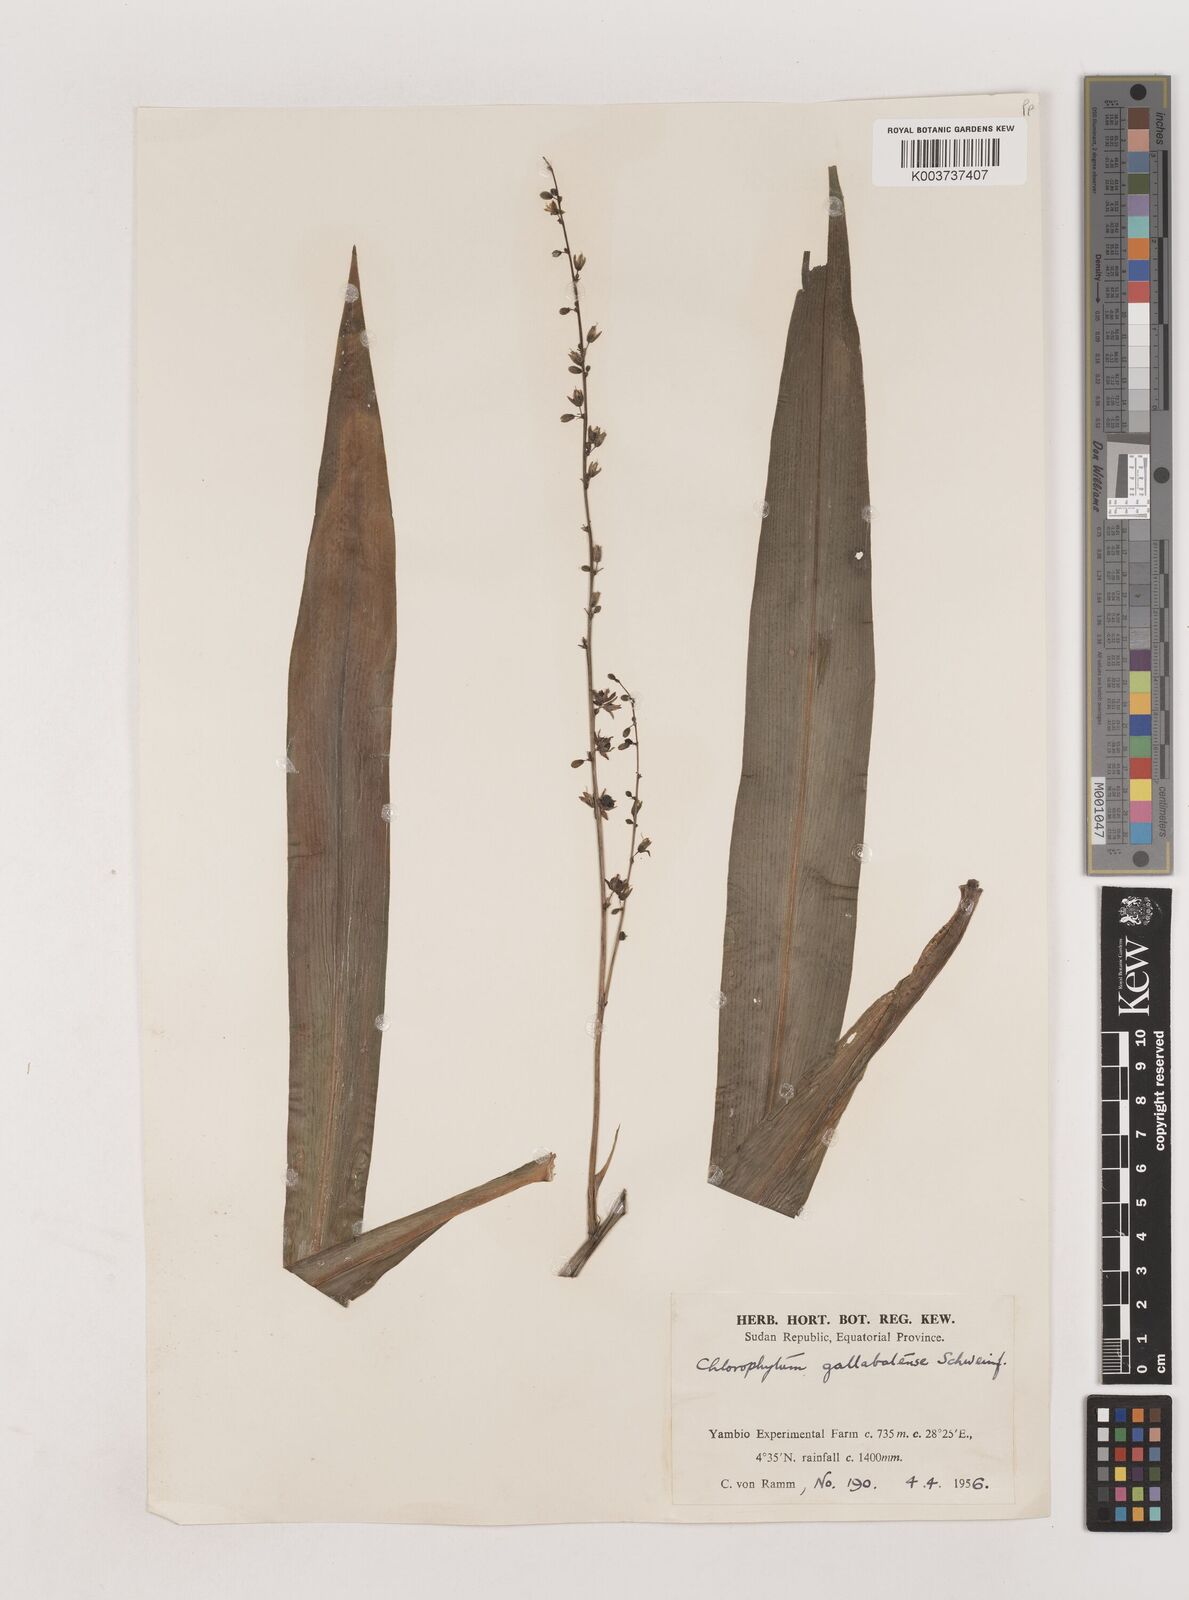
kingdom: Plantae
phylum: Tracheophyta
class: Liliopsida
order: Asparagales
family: Asparagaceae
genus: Chlorophytum
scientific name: Chlorophytum gallabatense
